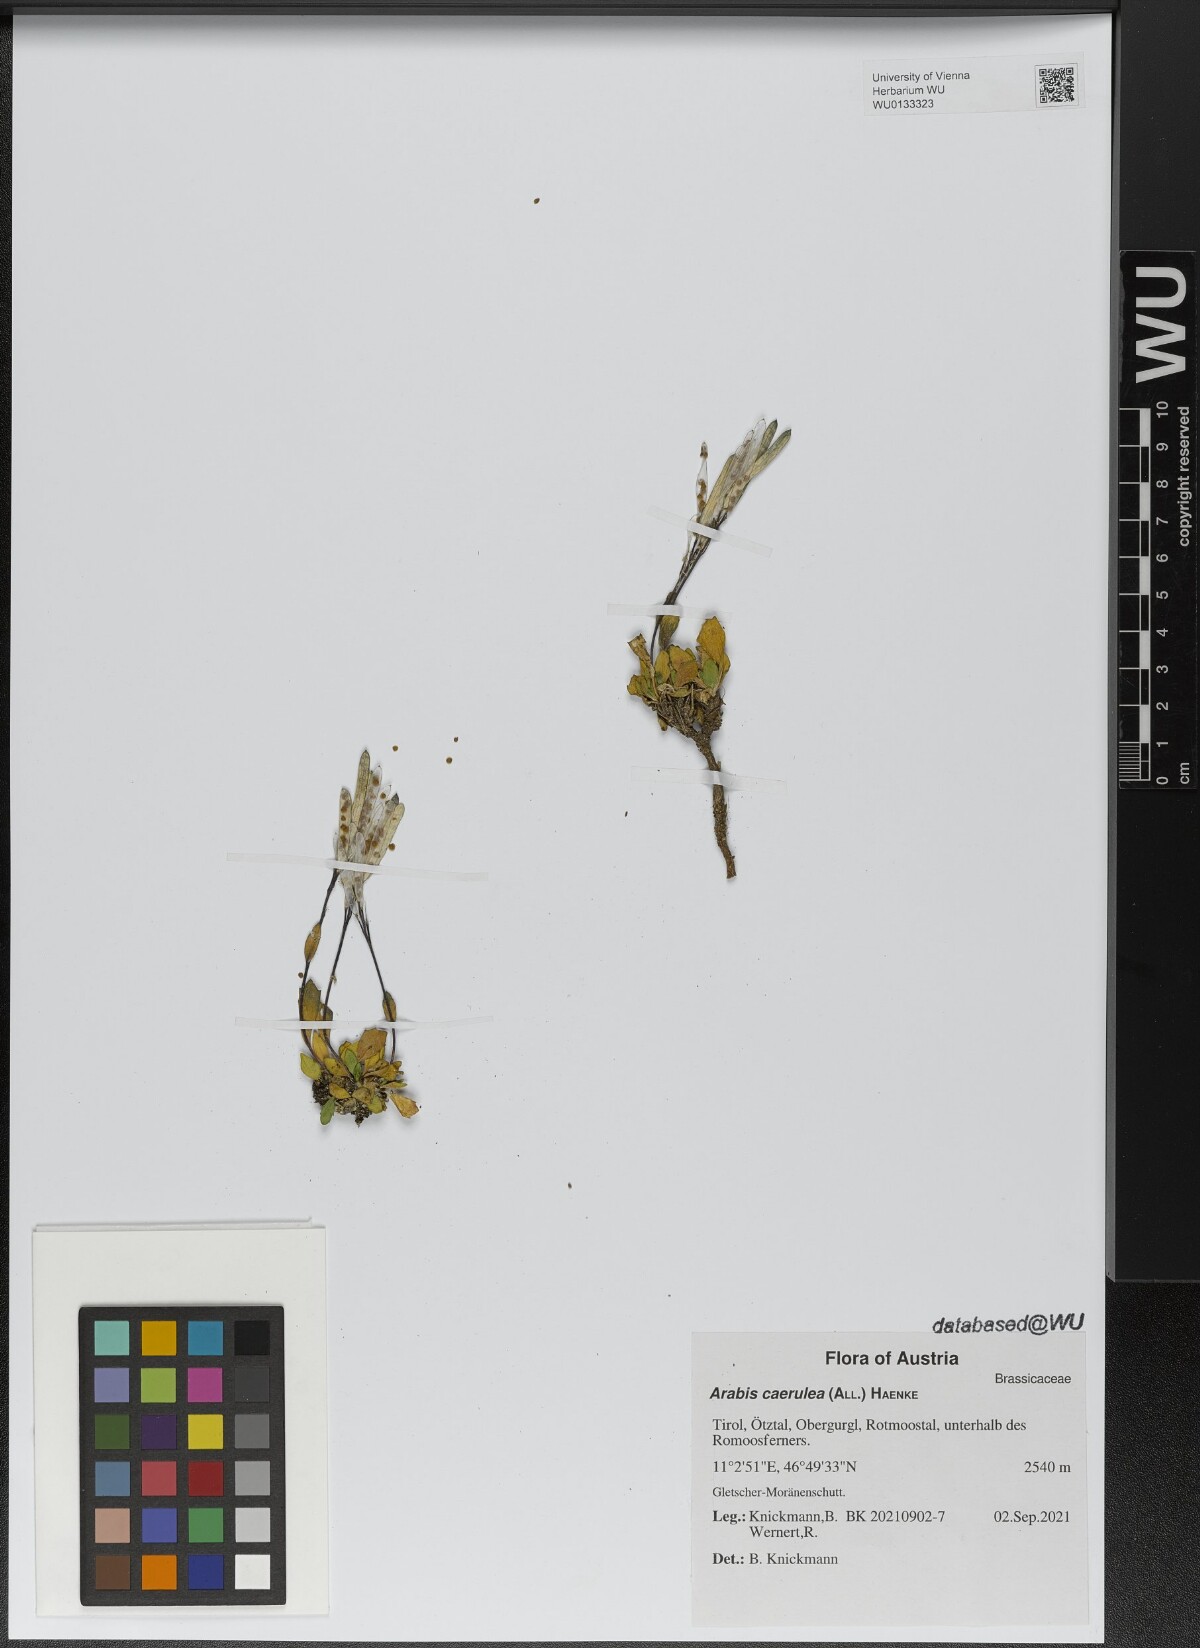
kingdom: Plantae
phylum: Tracheophyta
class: Magnoliopsida
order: Brassicales
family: Brassicaceae
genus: Arabis
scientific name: Arabis caerulea
